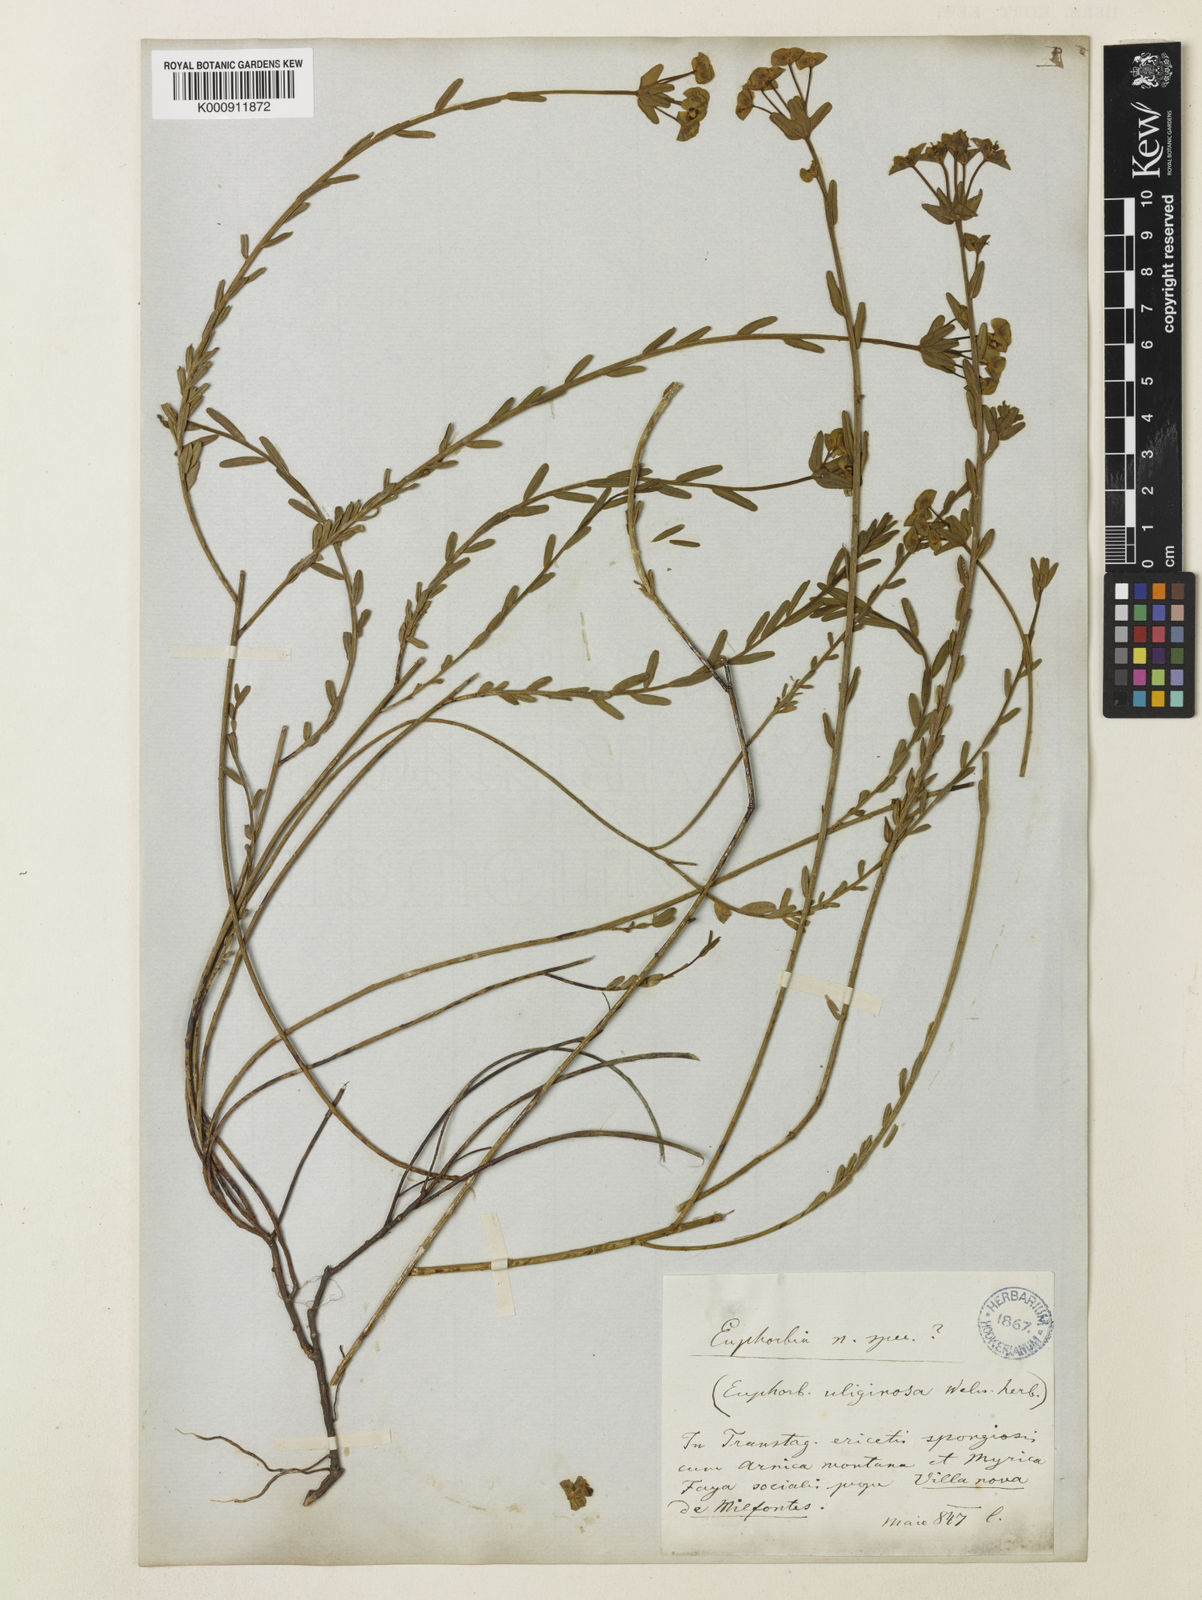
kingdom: Plantae
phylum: Tracheophyta
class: Magnoliopsida
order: Malpighiales
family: Euphorbiaceae
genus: Euphorbia
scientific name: Euphorbia uliginosa
